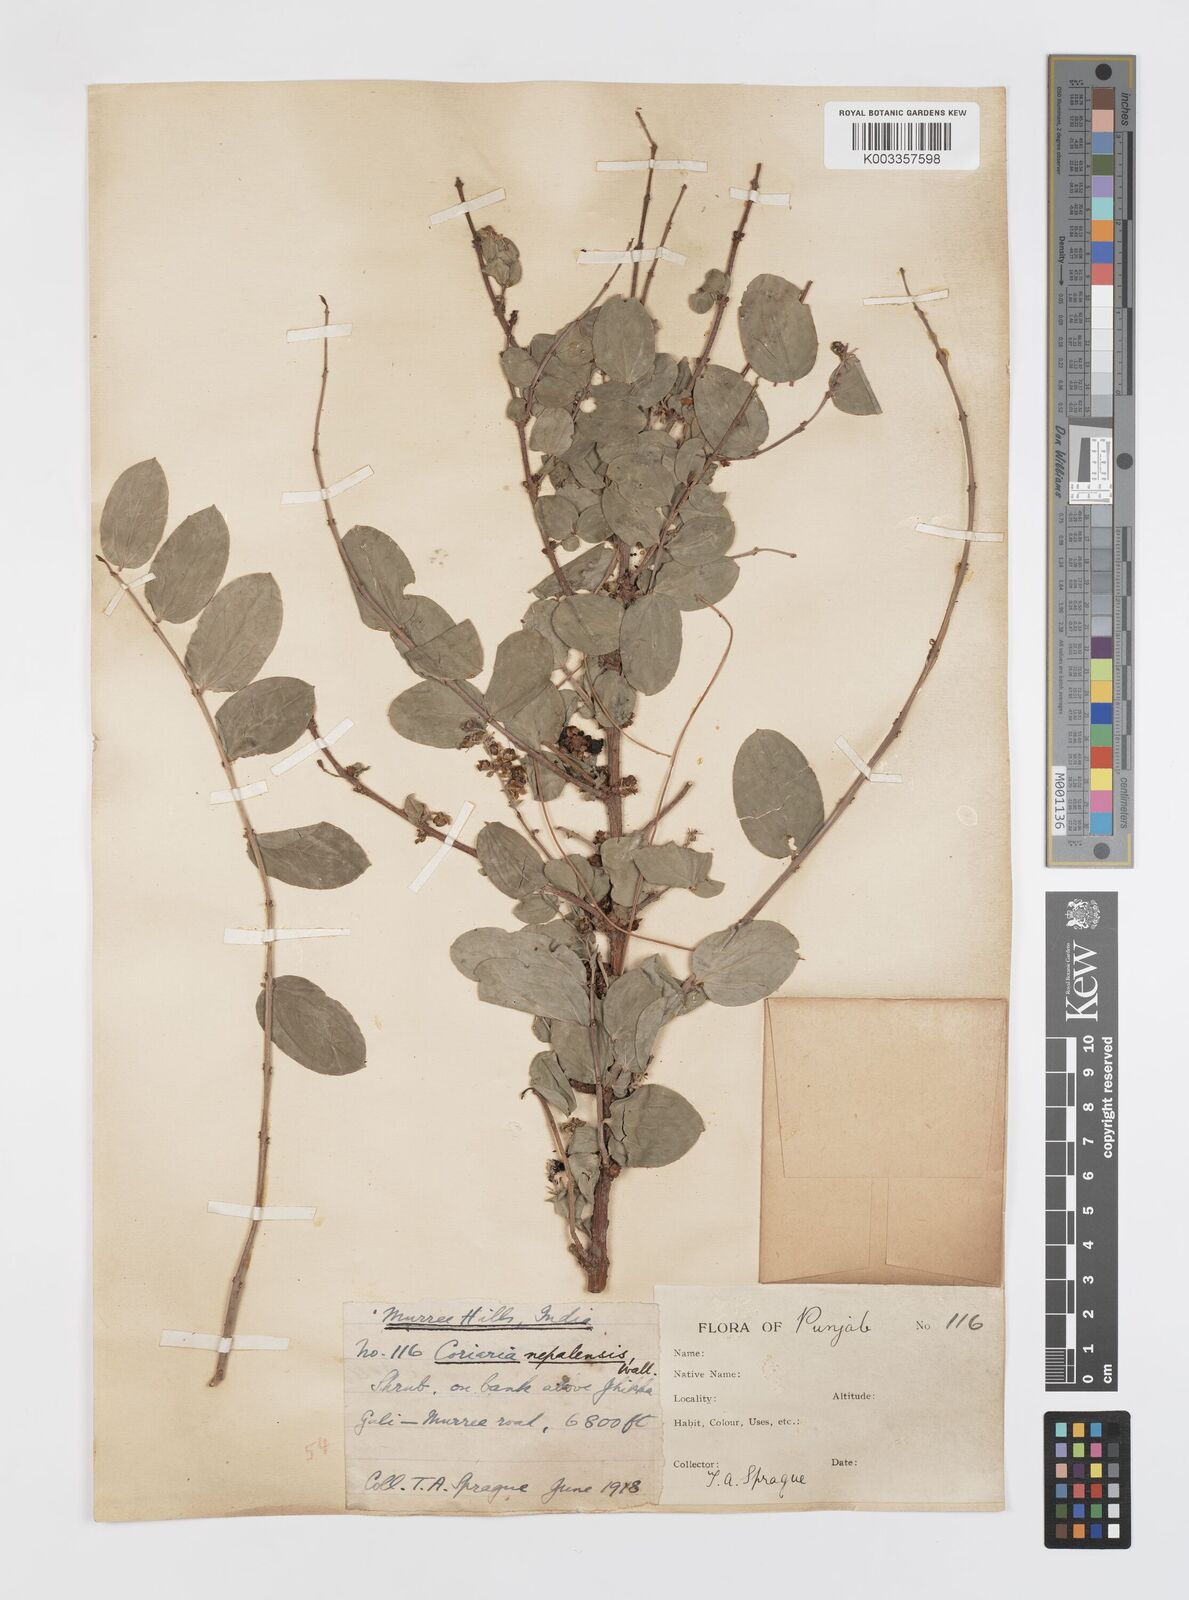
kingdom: Plantae
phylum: Tracheophyta
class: Magnoliopsida
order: Cucurbitales
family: Coriariaceae
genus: Coriaria
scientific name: Coriaria napalensis
